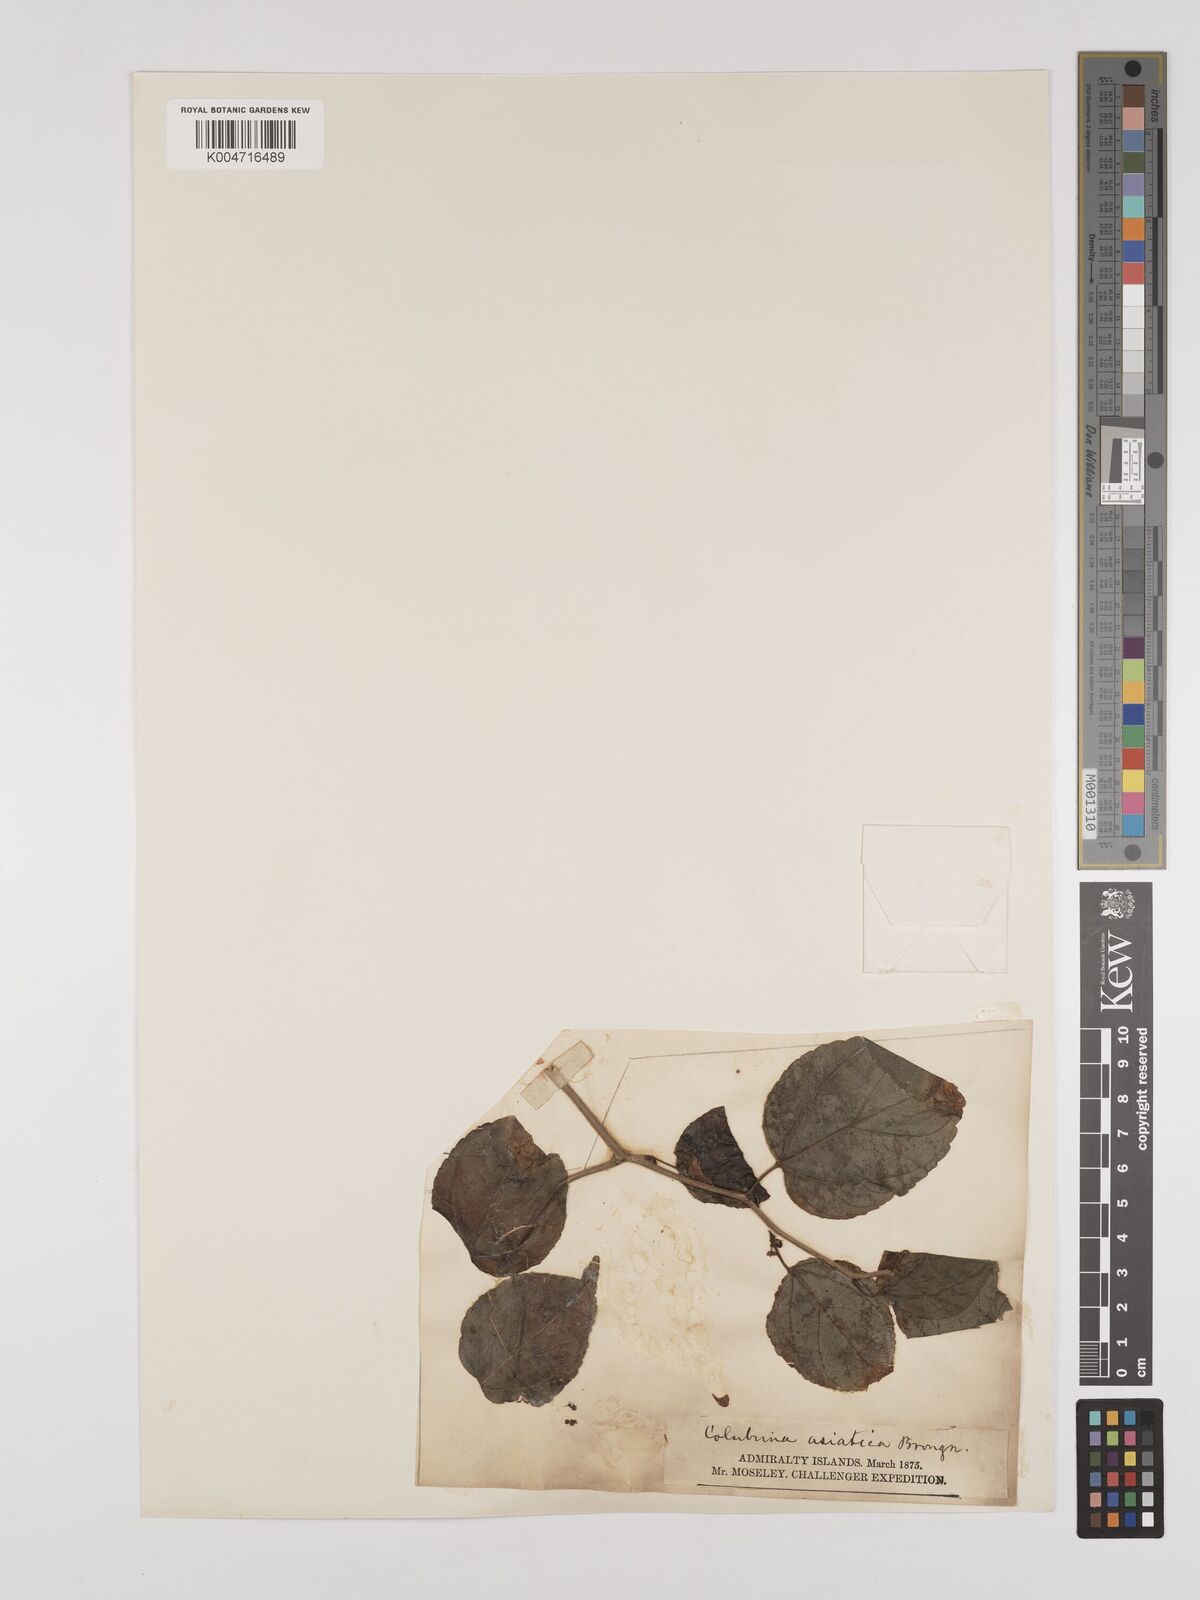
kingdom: Plantae
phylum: Tracheophyta
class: Magnoliopsida
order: Rosales
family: Rhamnaceae
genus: Colubrina
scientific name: Colubrina asiatica
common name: Asian nakedwood
